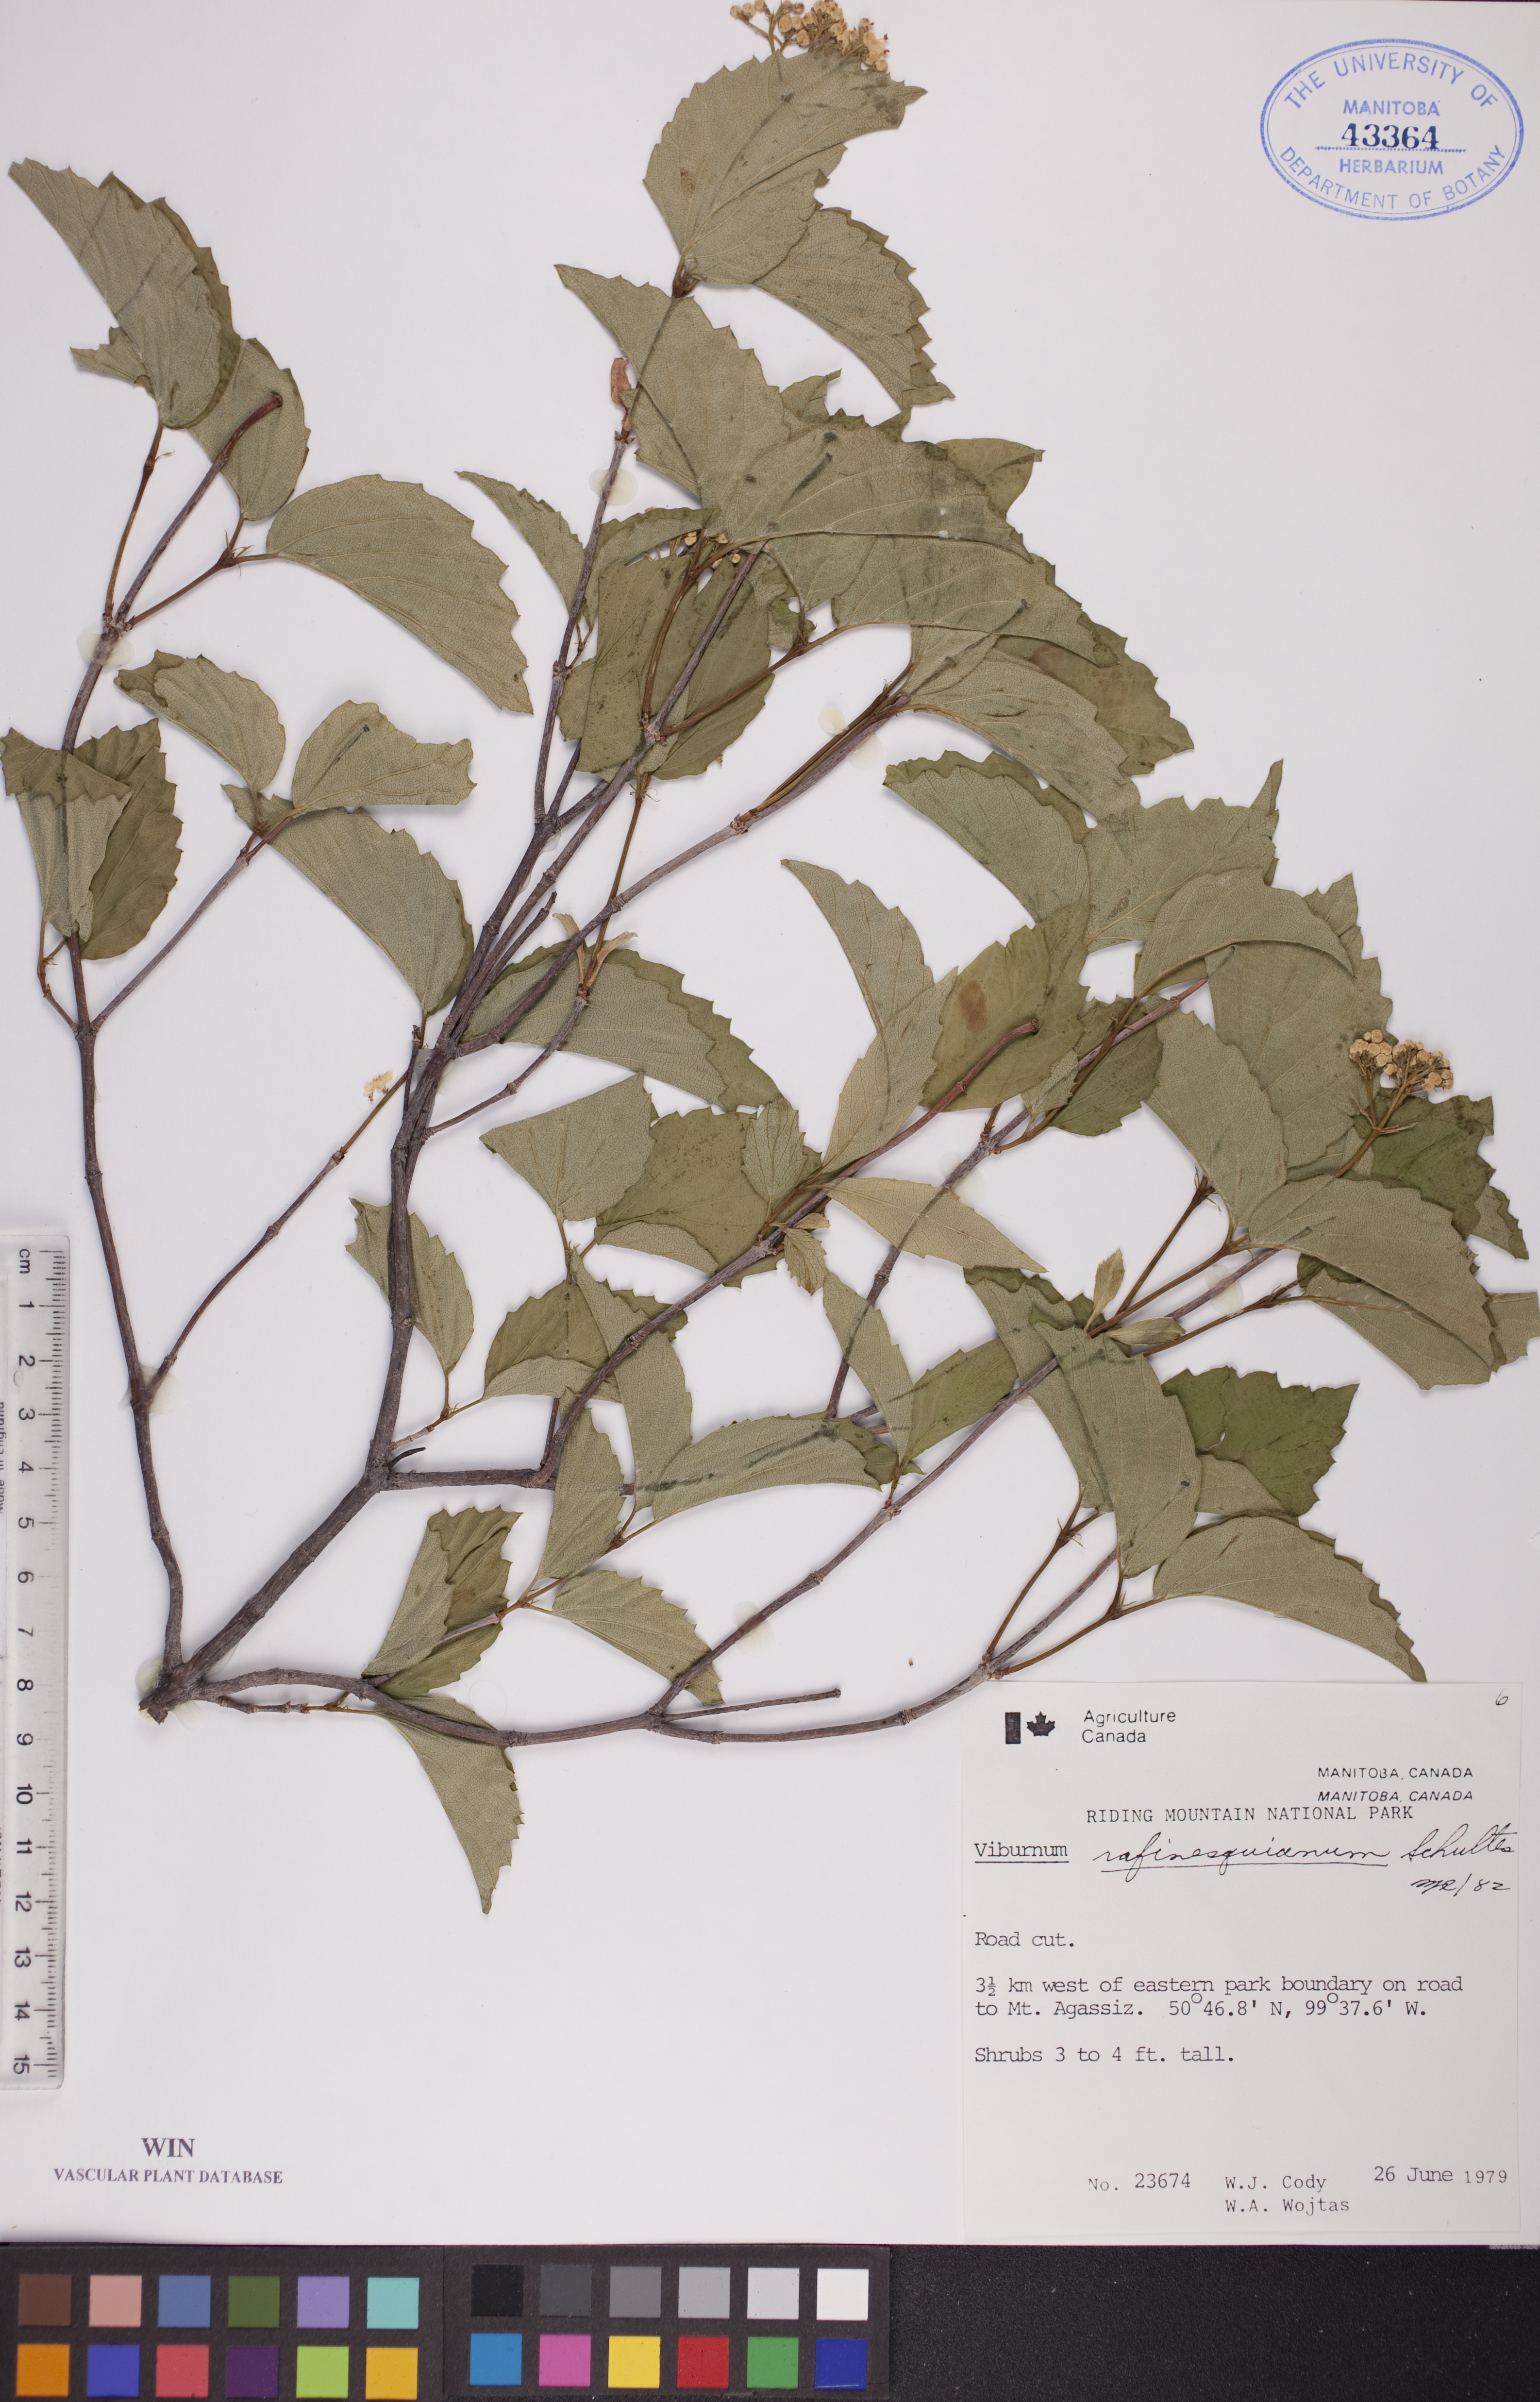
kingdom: Plantae
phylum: Tracheophyta
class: Magnoliopsida
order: Dipsacales
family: Viburnaceae
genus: Viburnum
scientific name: Viburnum rafinesquianum
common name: Downy arrow-wood
